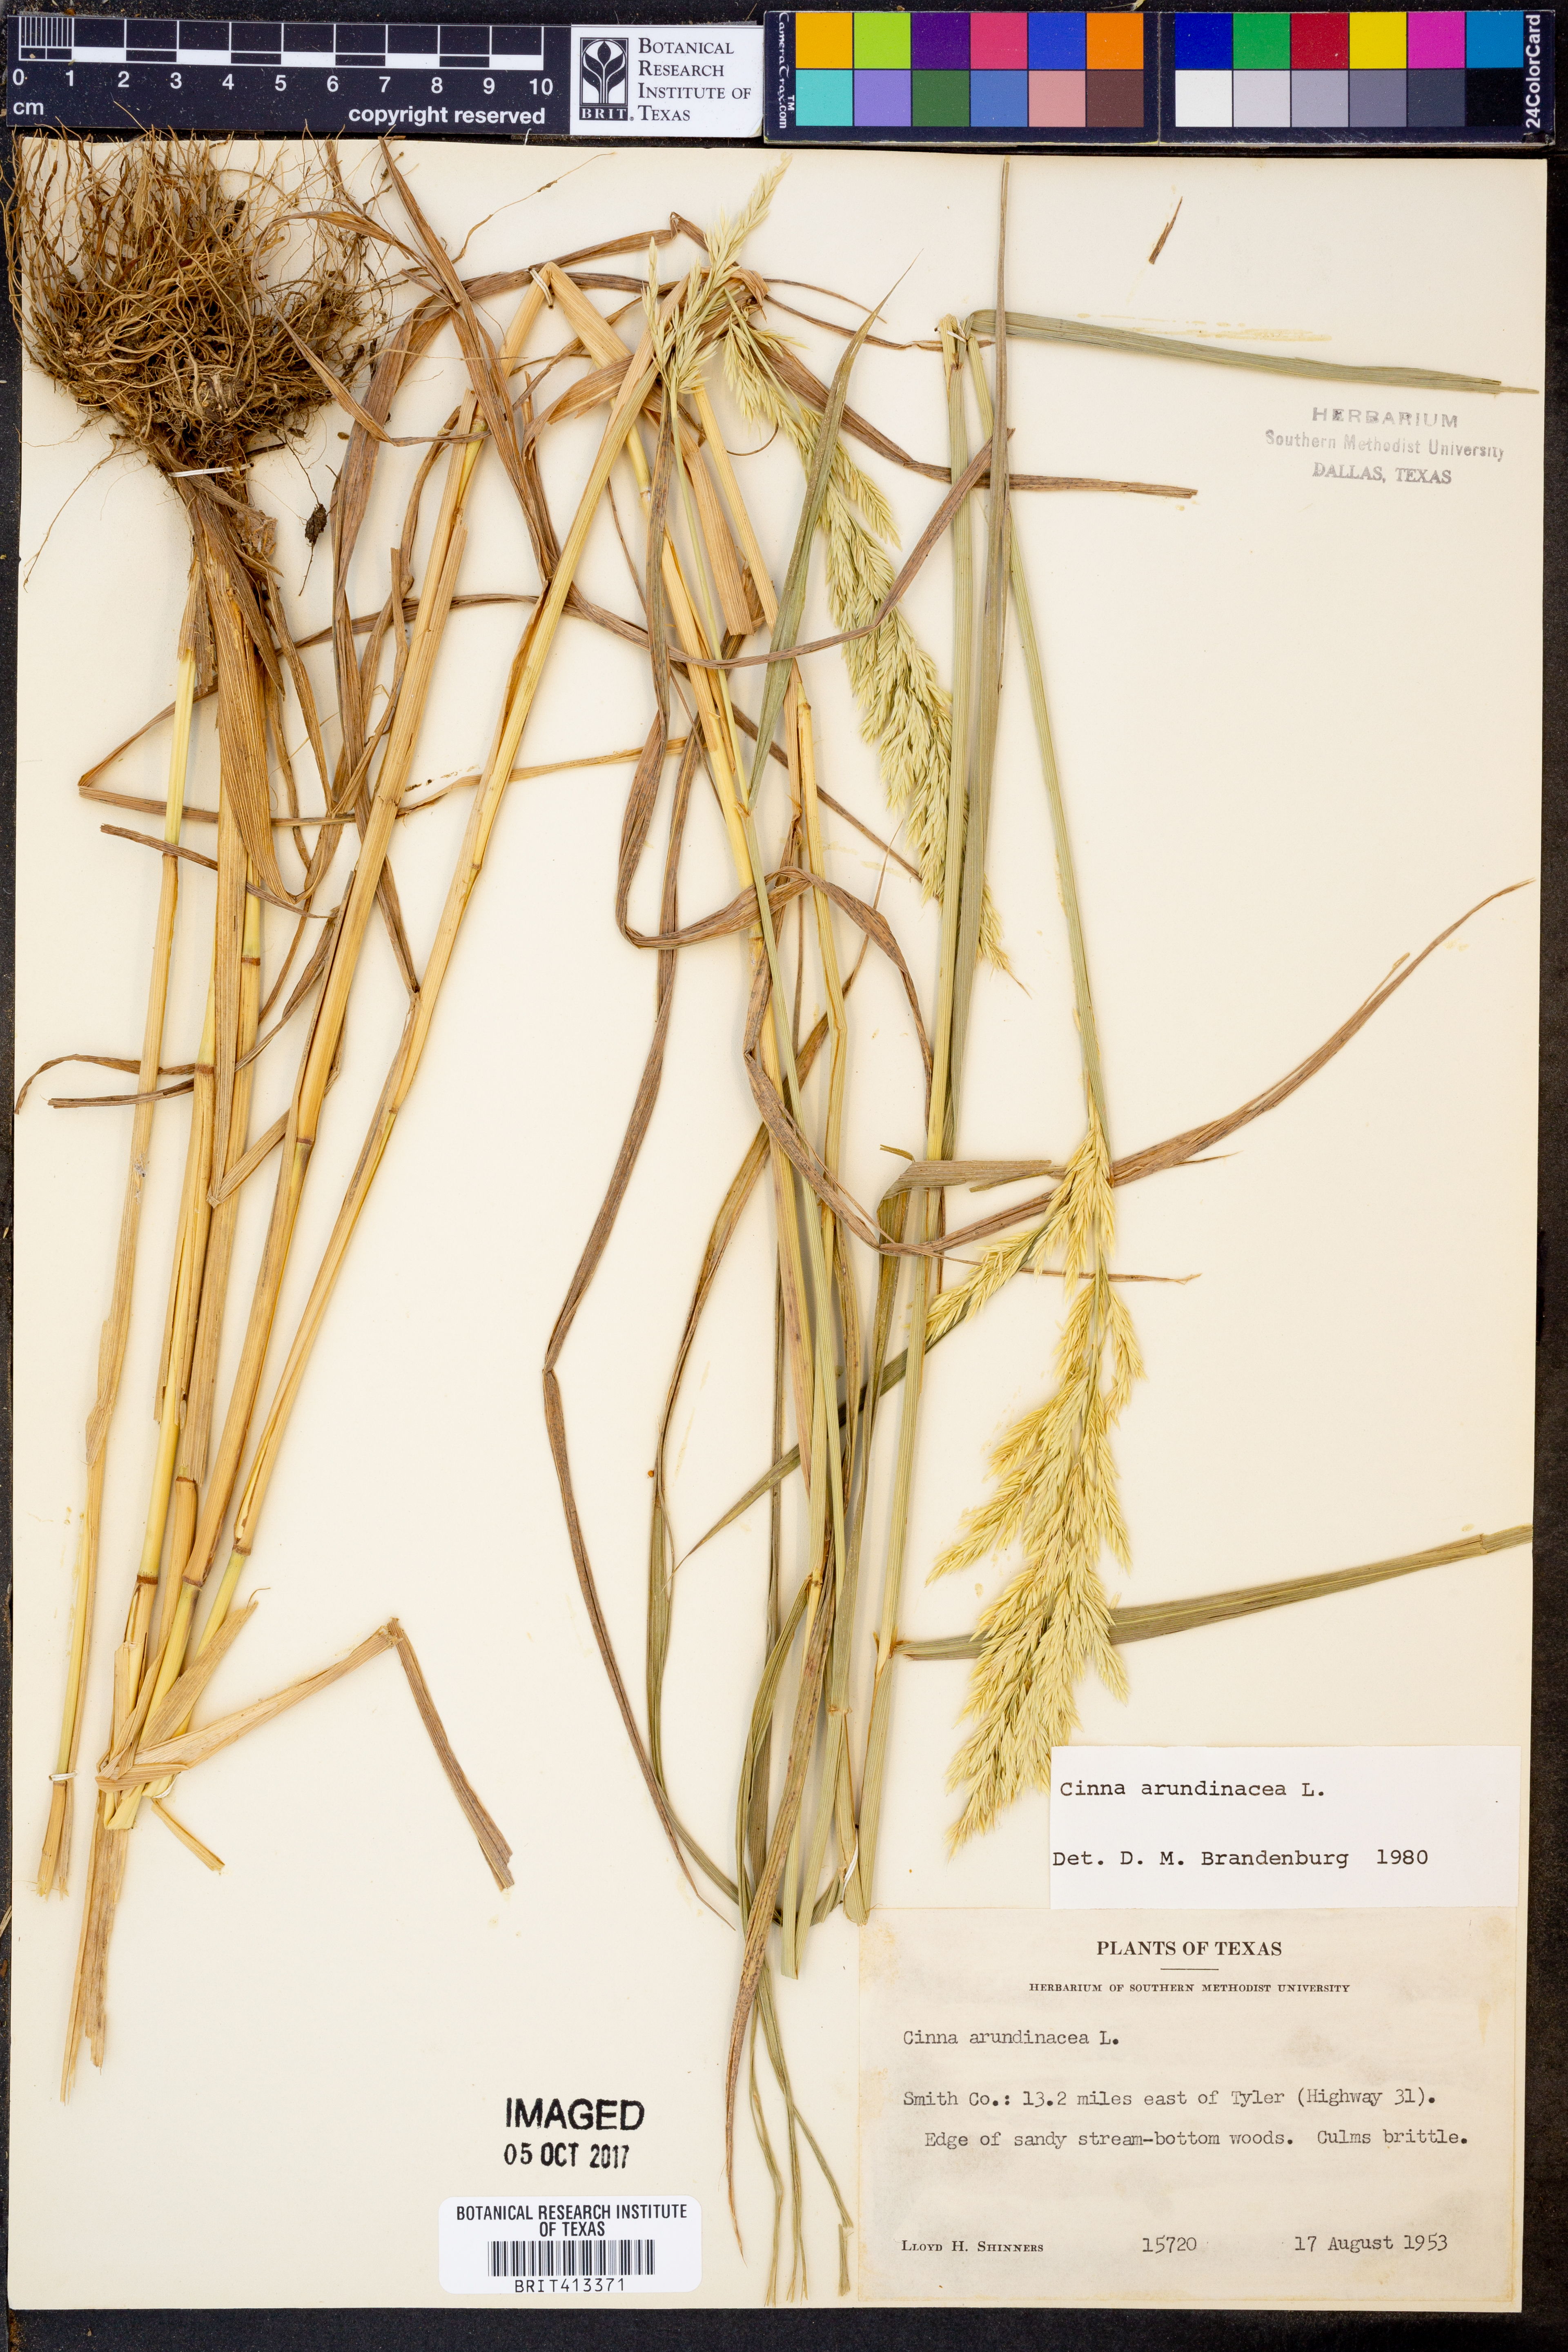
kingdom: Plantae
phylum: Tracheophyta
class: Liliopsida
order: Poales
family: Poaceae
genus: Cinna
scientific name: Cinna arundinacea
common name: Stout woodreed
